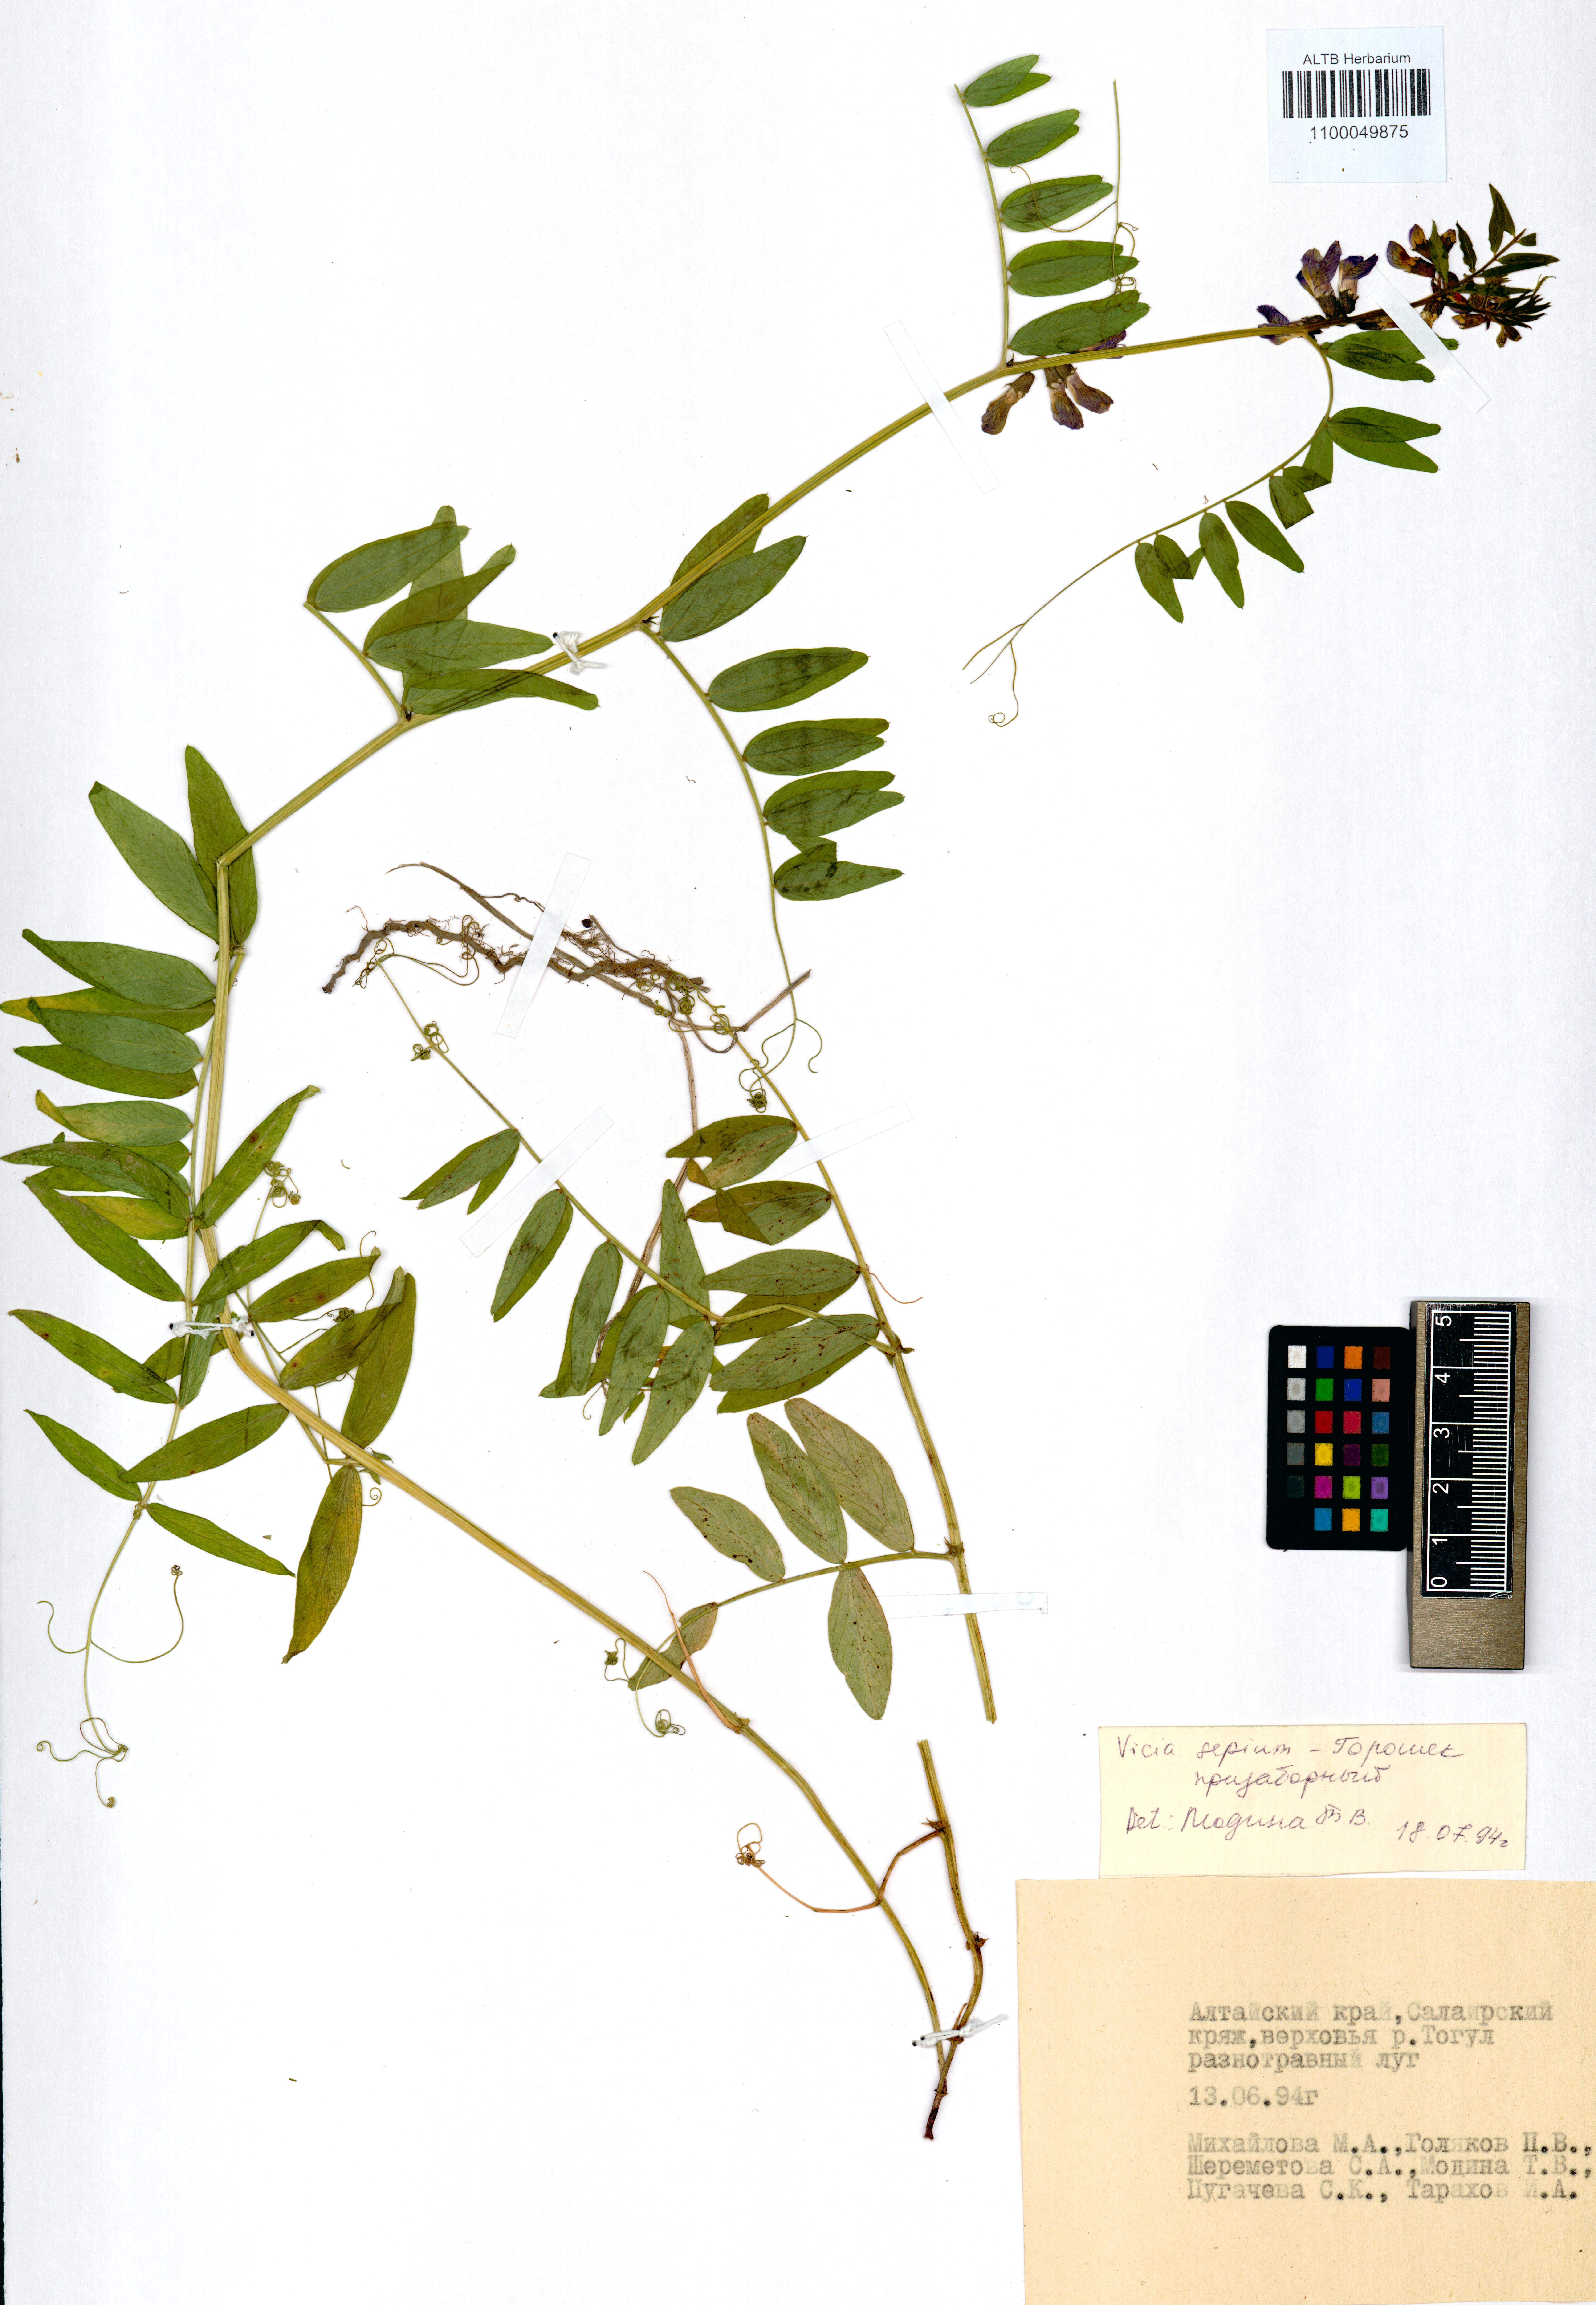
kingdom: Plantae
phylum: Tracheophyta
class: Magnoliopsida
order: Fabales
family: Fabaceae
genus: Vicia
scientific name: Vicia sepium
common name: Bush vetch
